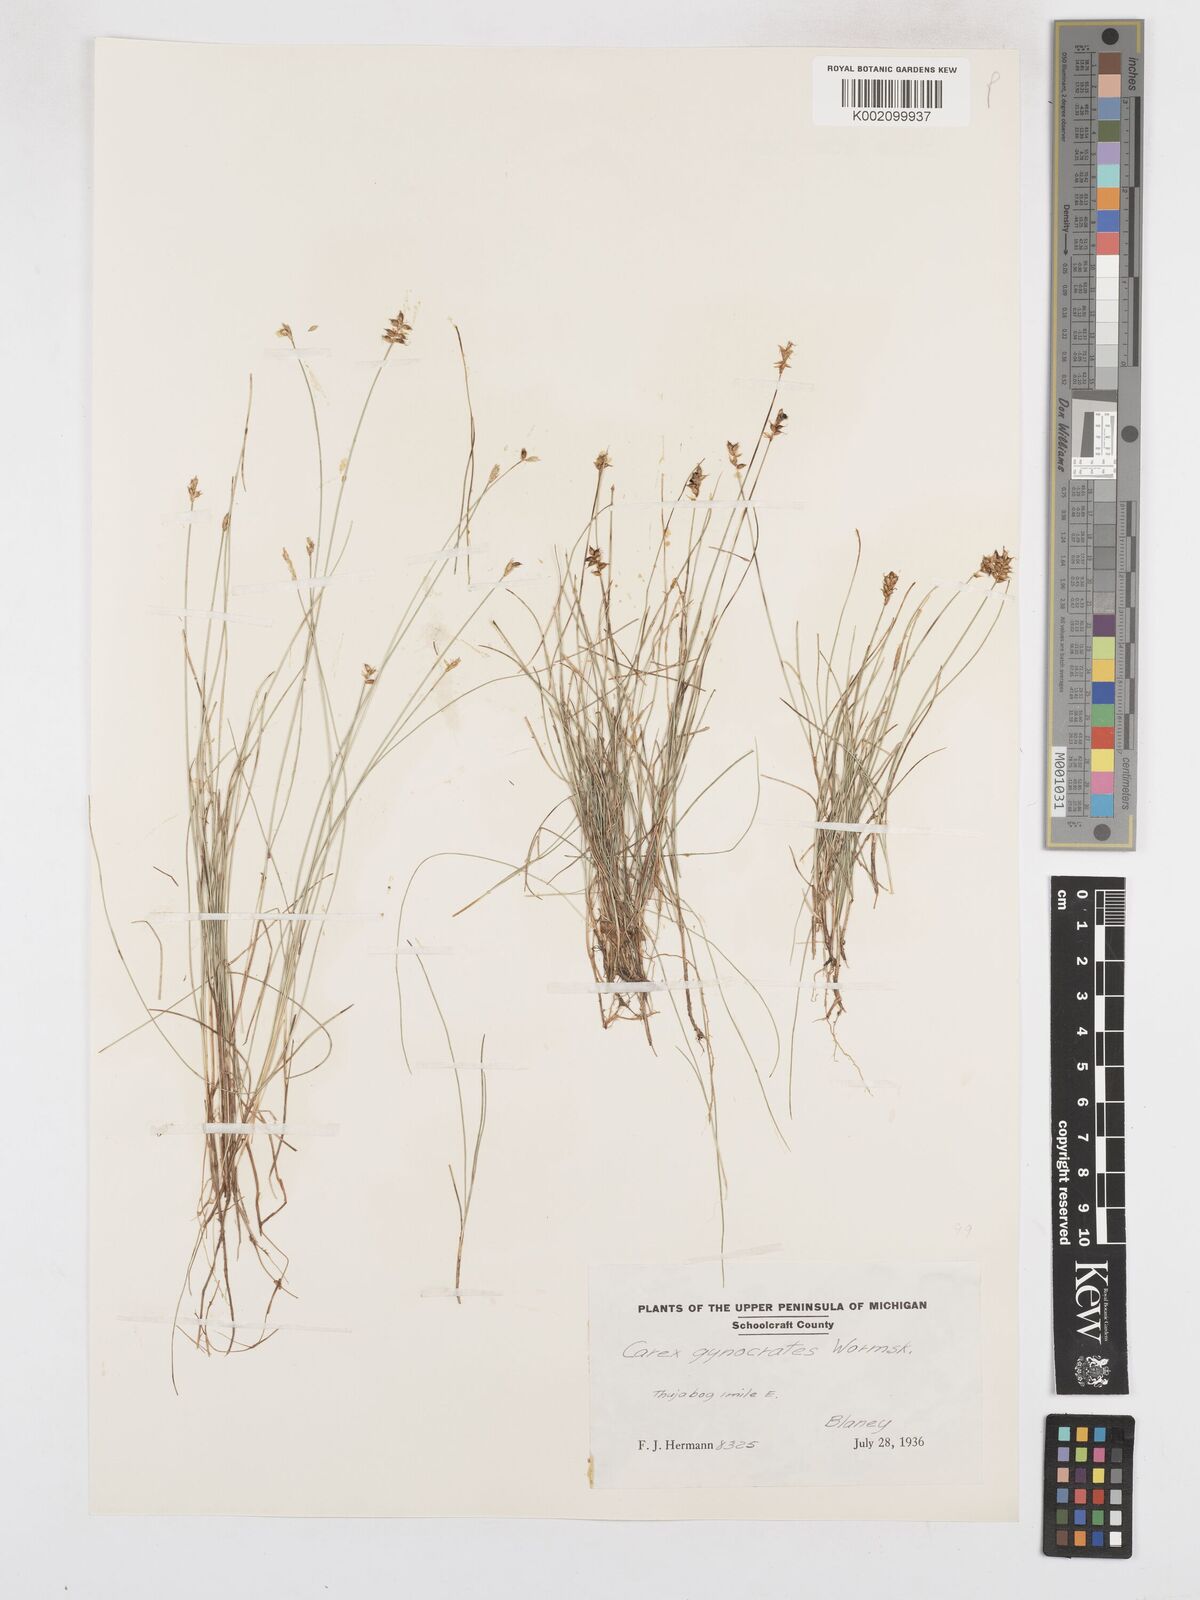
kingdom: Plantae
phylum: Tracheophyta
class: Liliopsida
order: Poales
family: Cyperaceae
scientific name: Cyperaceae
